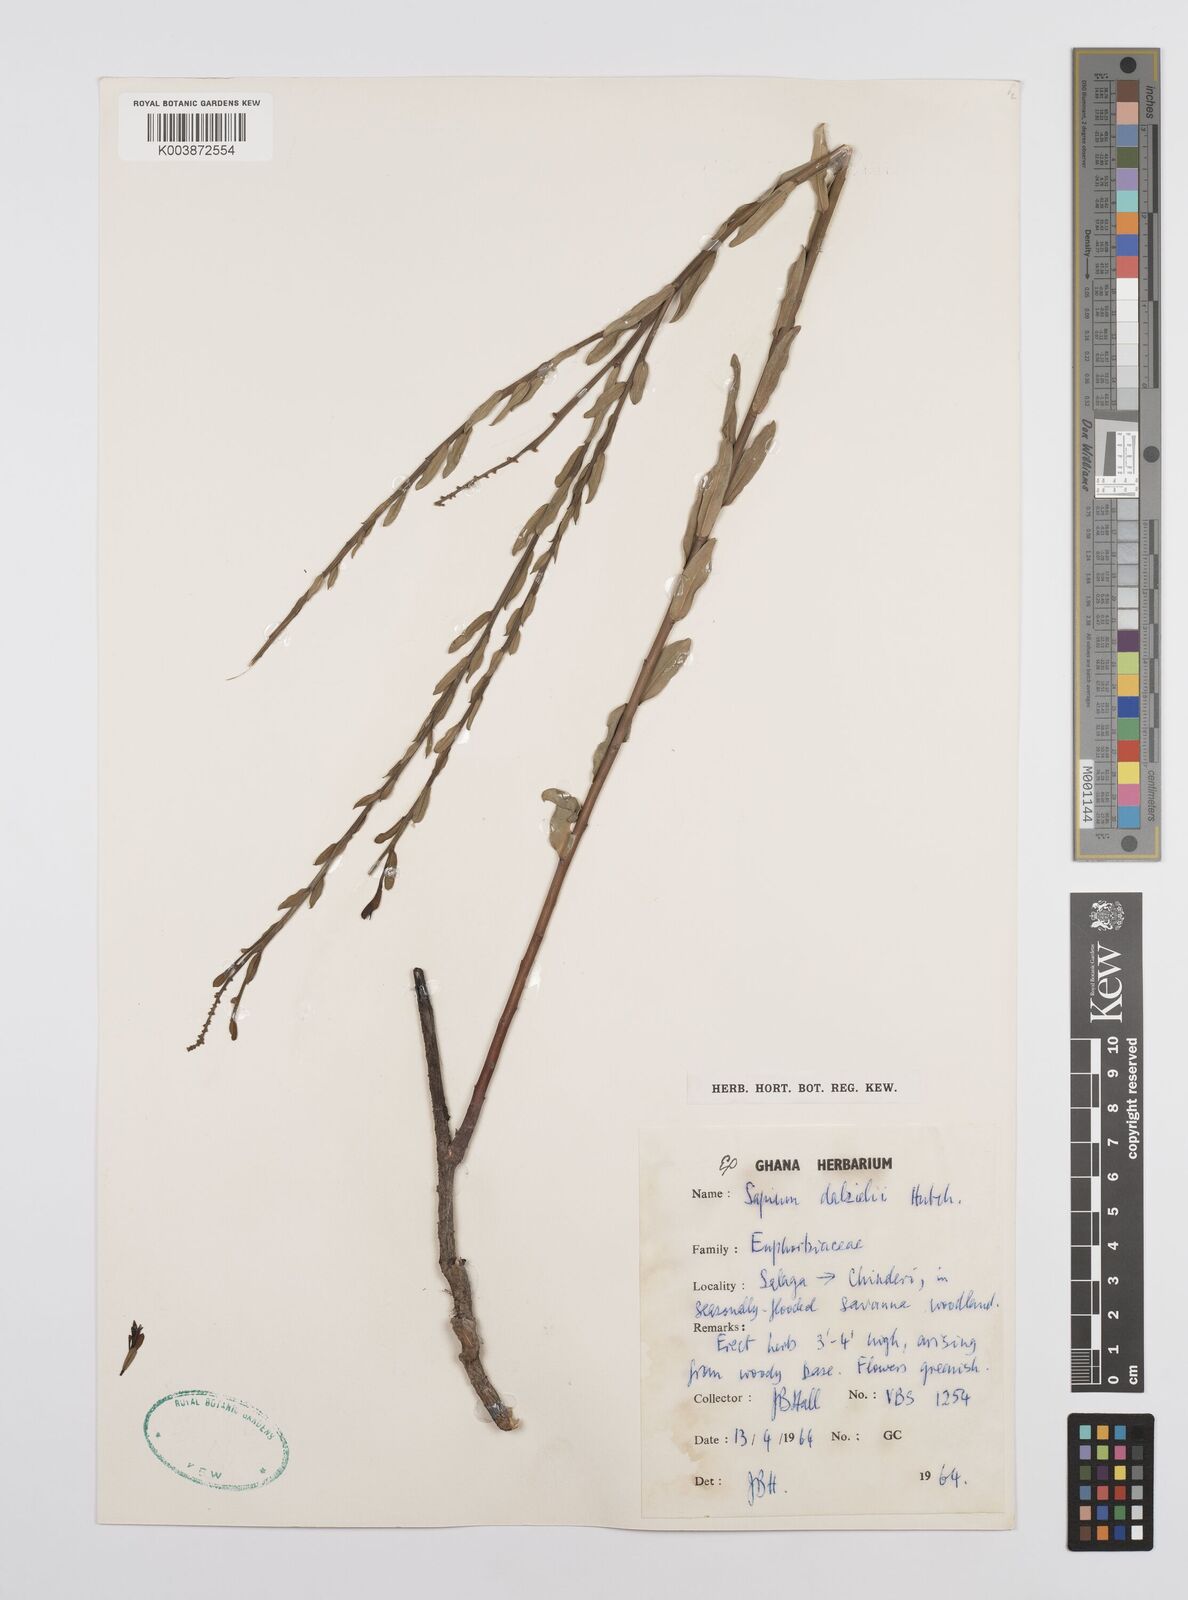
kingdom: Plantae
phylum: Tracheophyta
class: Magnoliopsida
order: Malpighiales
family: Euphorbiaceae
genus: Microstachys
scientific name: Microstachys dalzielii
